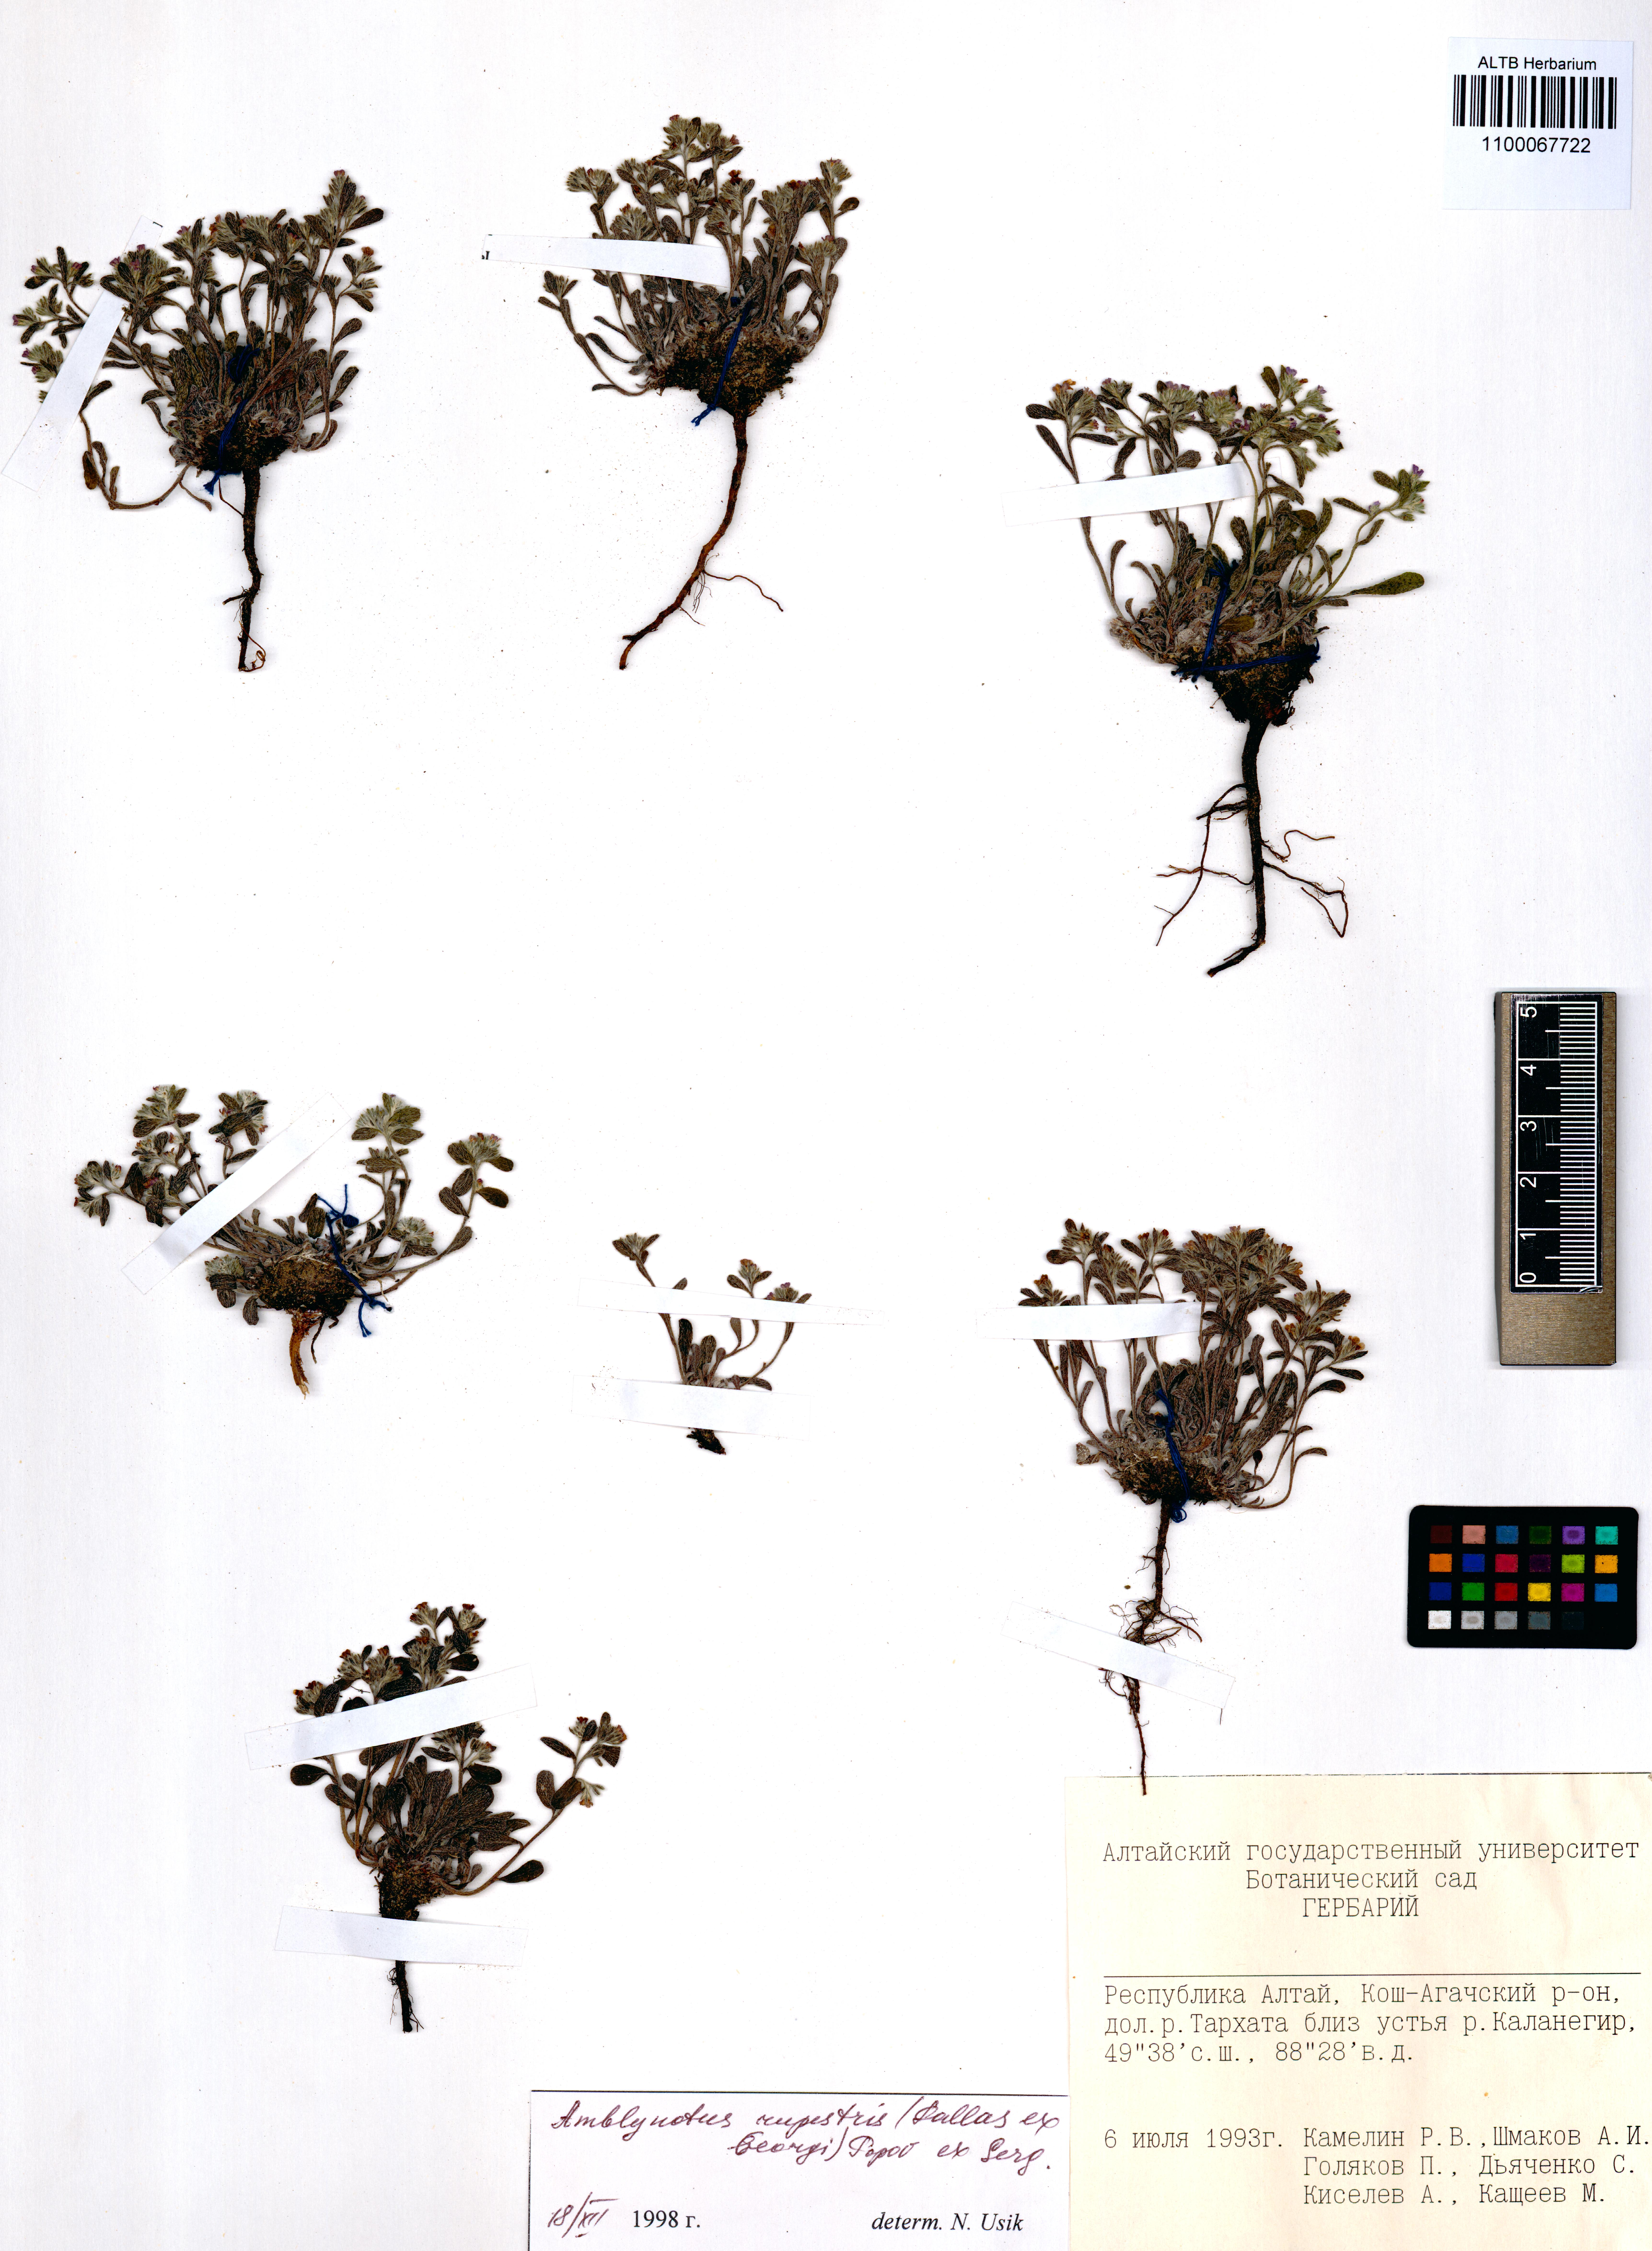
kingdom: Plantae
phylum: Tracheophyta
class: Magnoliopsida
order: Boraginales
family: Boraginaceae
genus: Eritrichium
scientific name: Eritrichium rupestre
